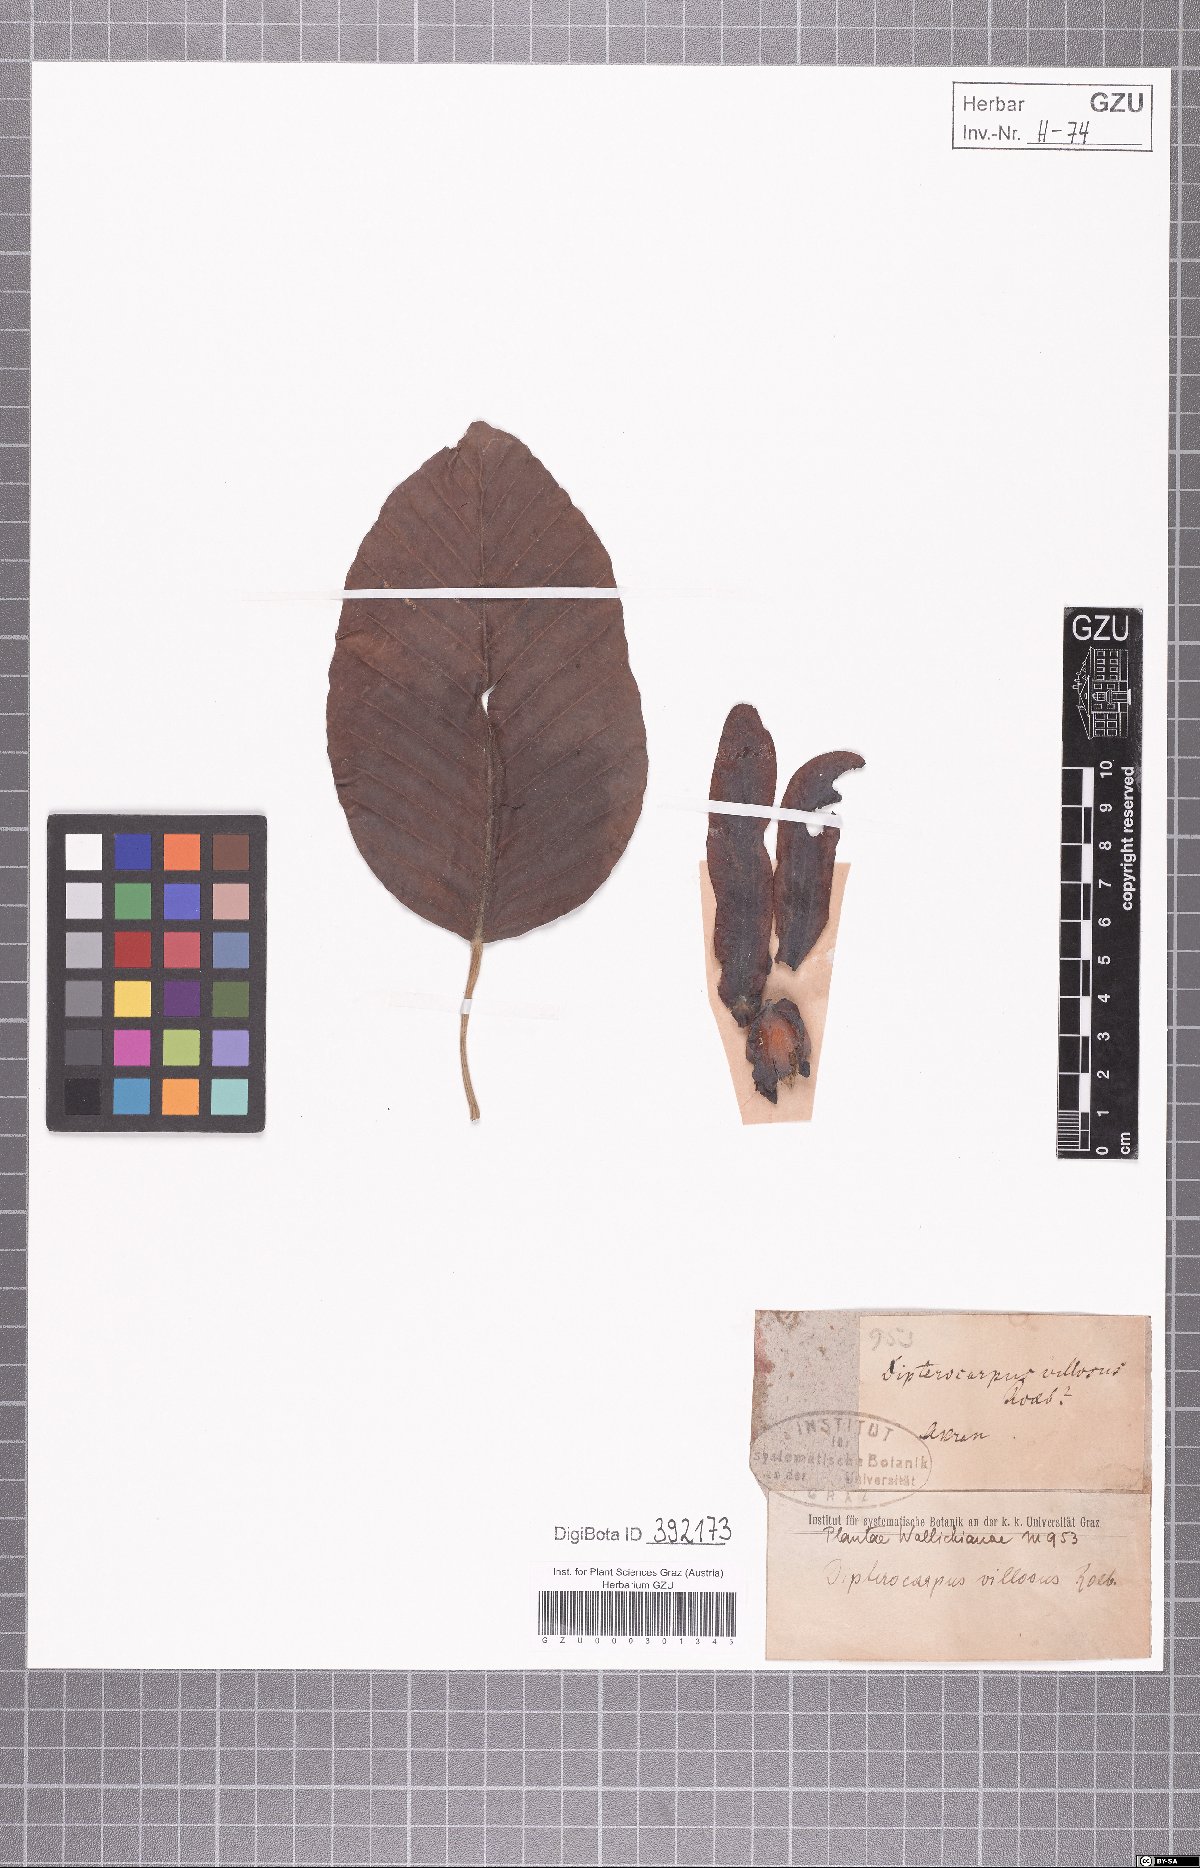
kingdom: Plantae
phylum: Tracheophyta
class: Magnoliopsida
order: Malvales
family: Dipterocarpaceae
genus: Dipterocarpus
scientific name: Dipterocarpus
